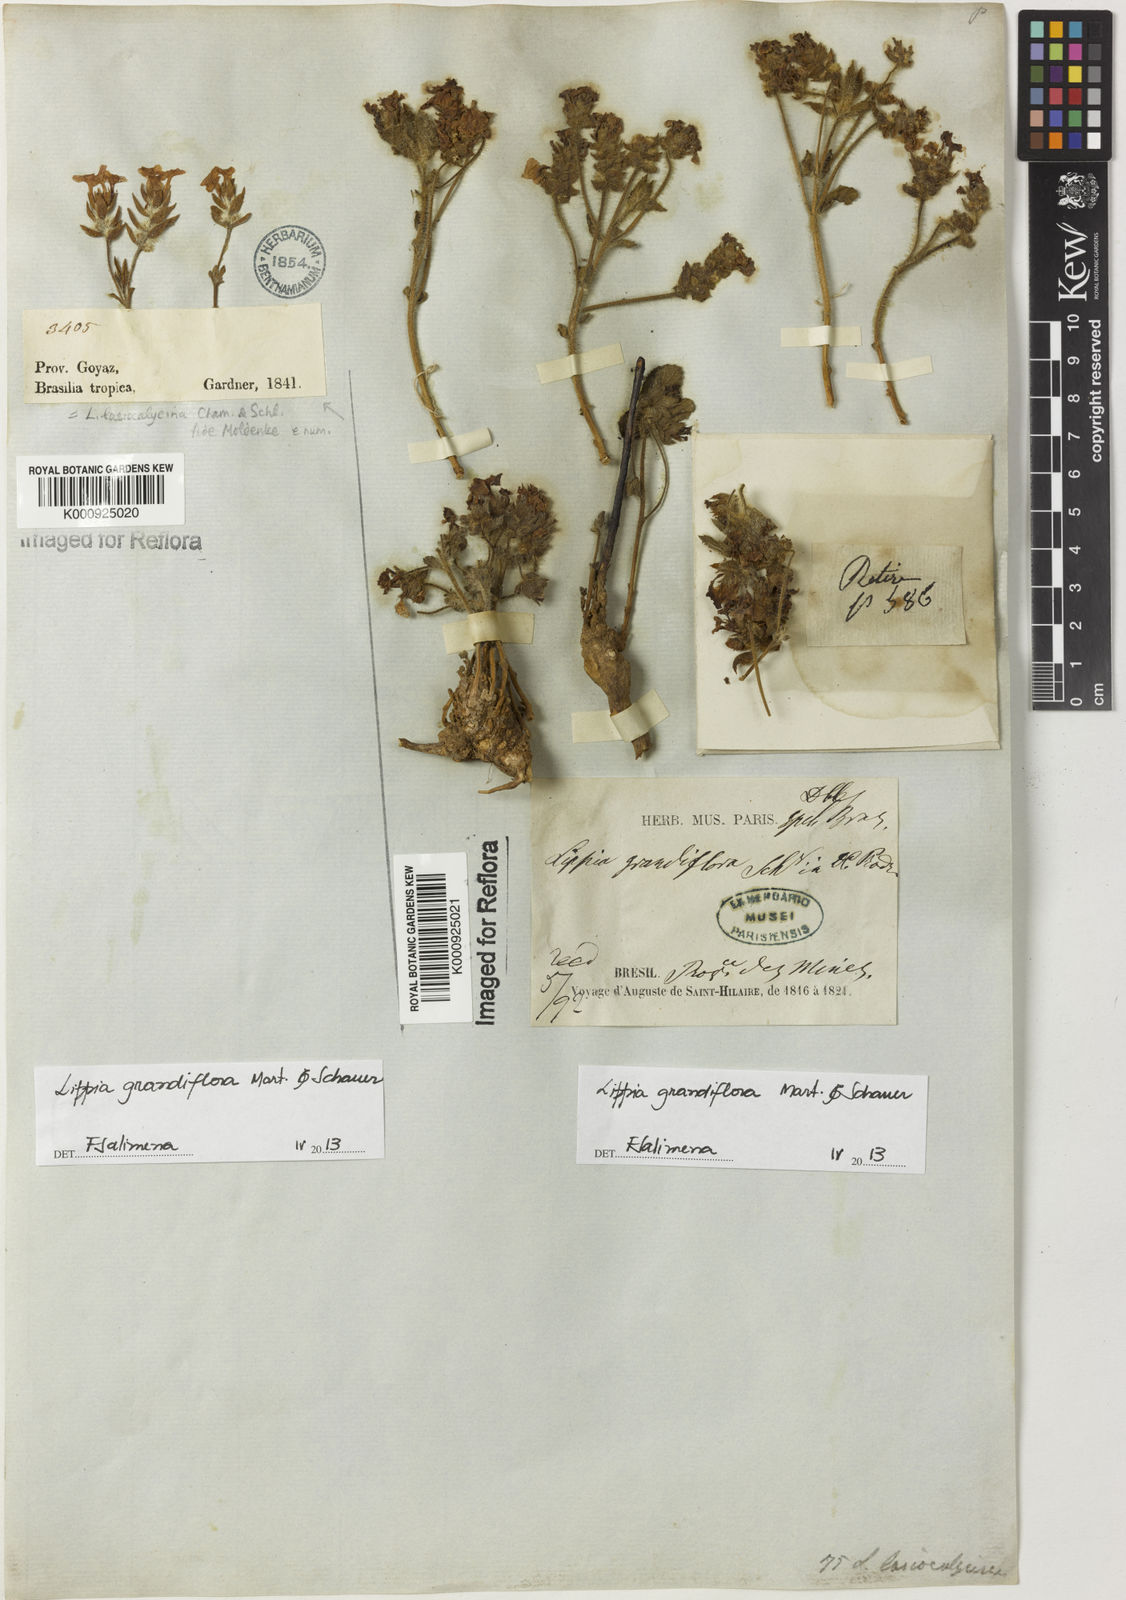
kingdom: Plantae
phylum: Tracheophyta
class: Magnoliopsida
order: Lamiales
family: Verbenaceae
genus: Lippia
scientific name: Lippia grandiflora
